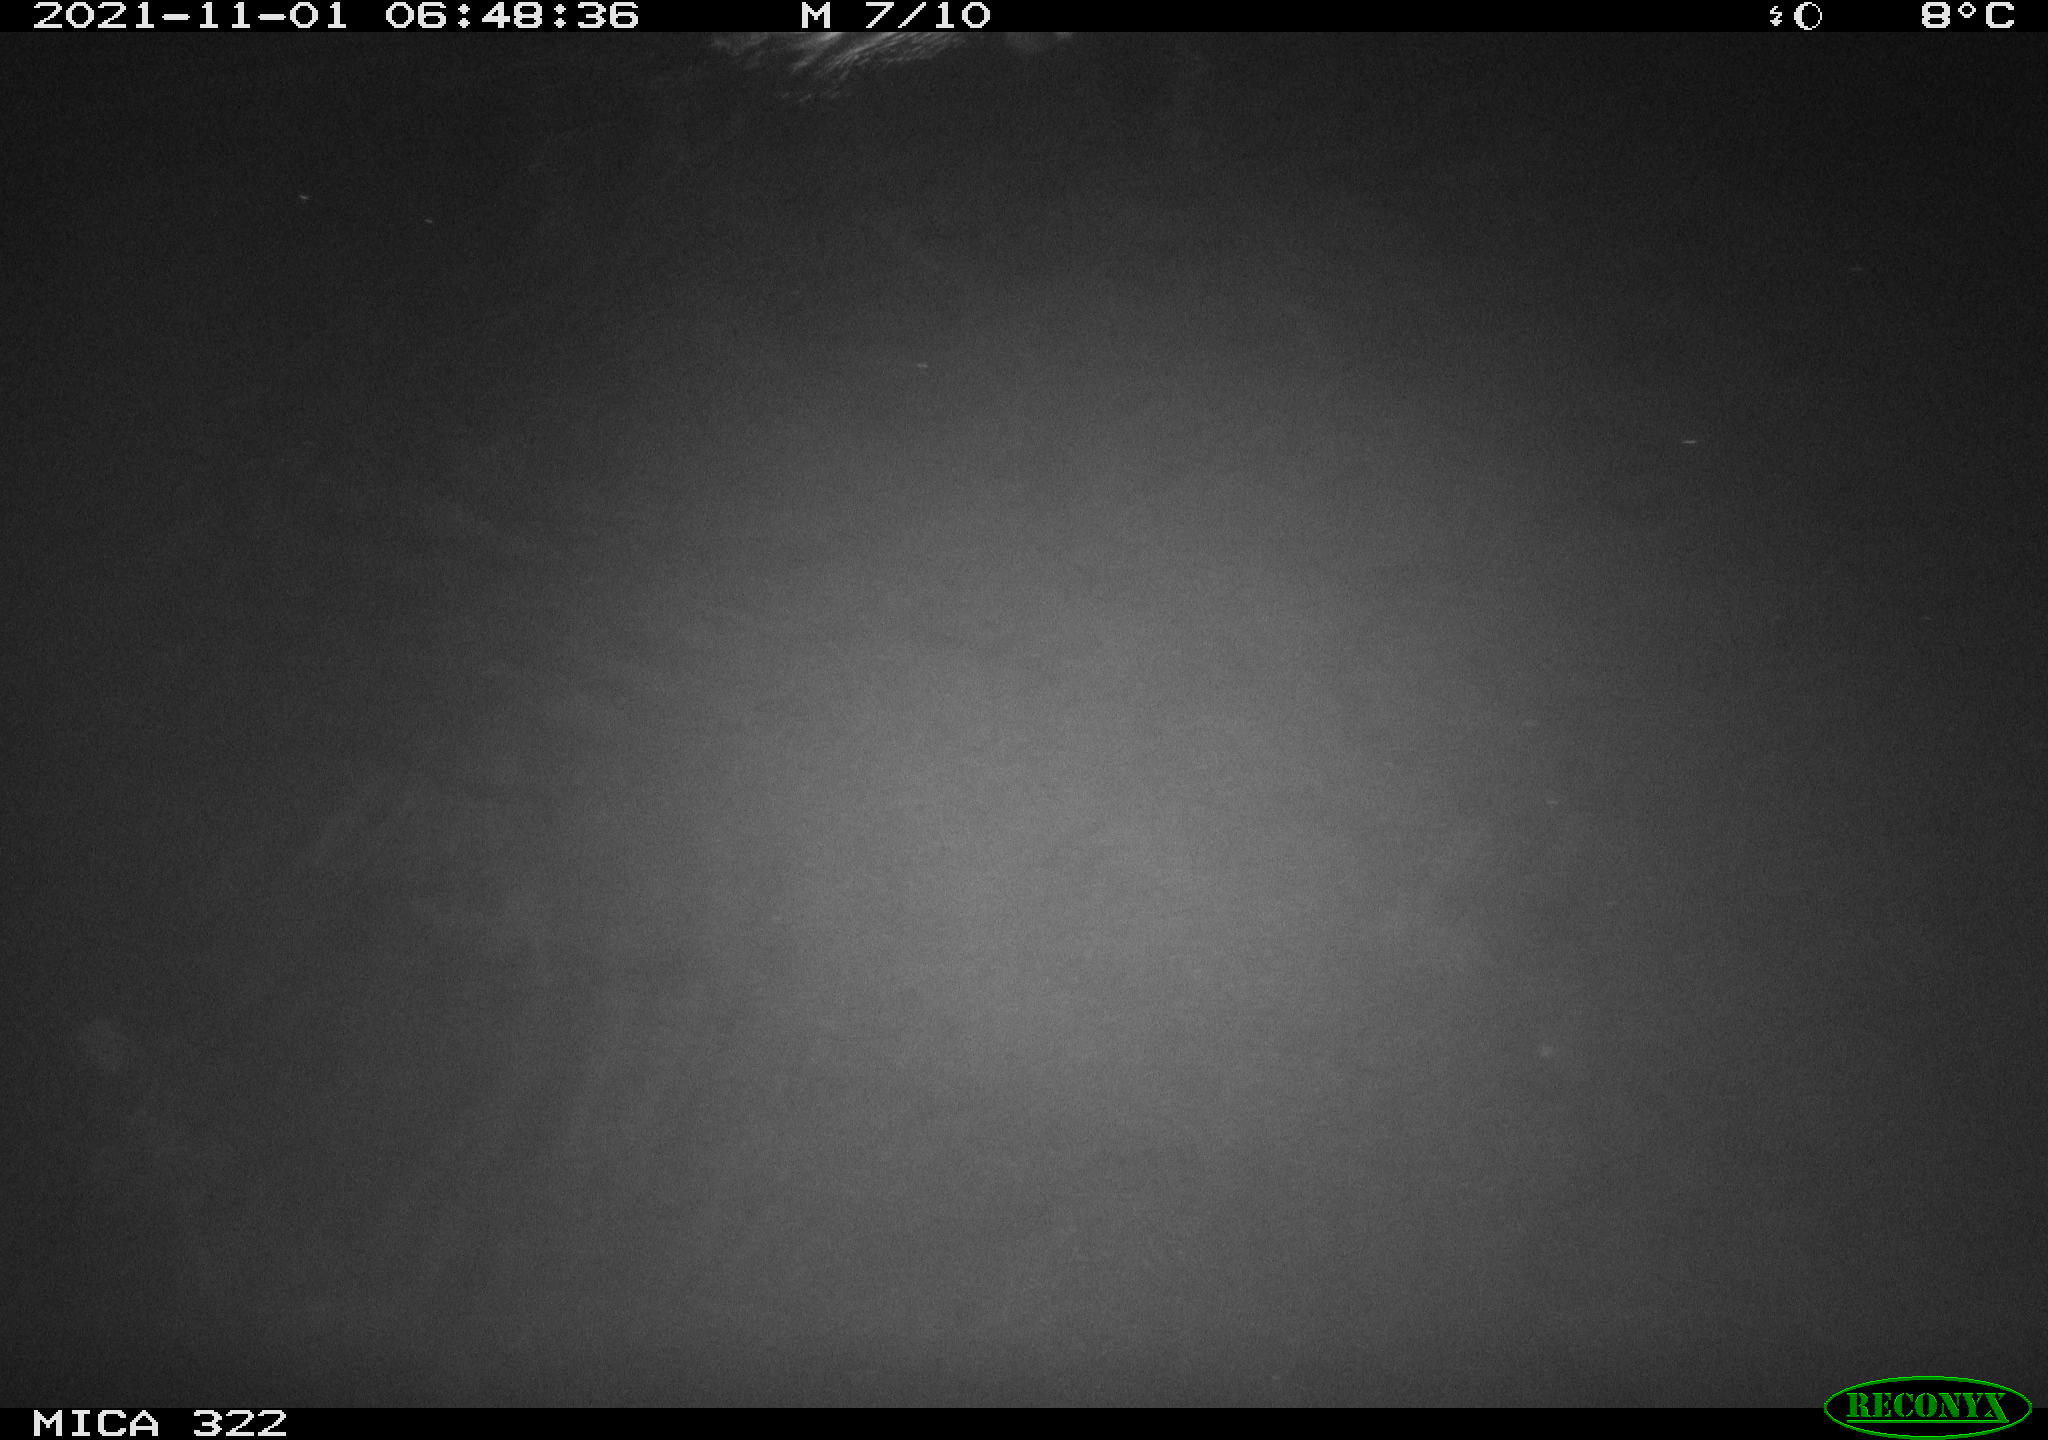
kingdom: Animalia
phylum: Chordata
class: Aves
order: Anseriformes
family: Anatidae
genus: Anas
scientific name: Anas platyrhynchos
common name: Mallard
